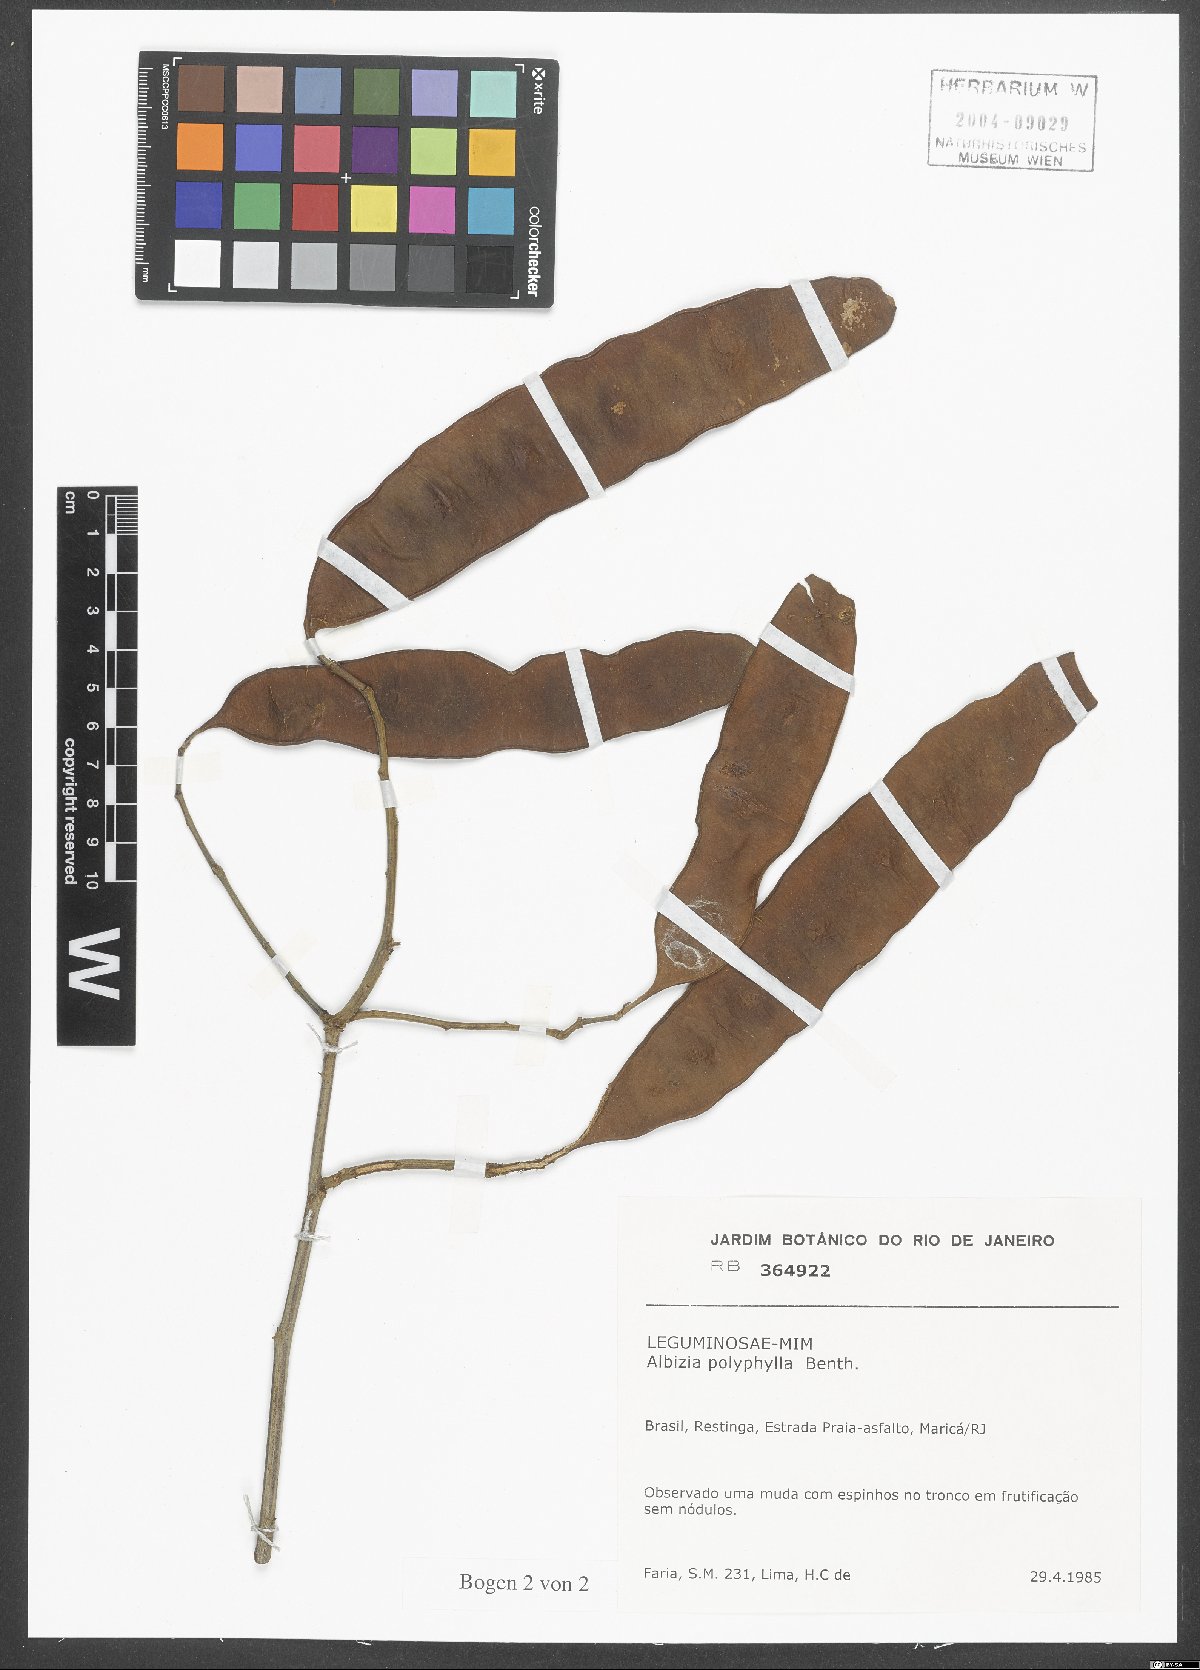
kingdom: Plantae
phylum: Tracheophyta
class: Magnoliopsida
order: Fabales
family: Fabaceae
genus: Albizia
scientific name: Albizia polyphylla
